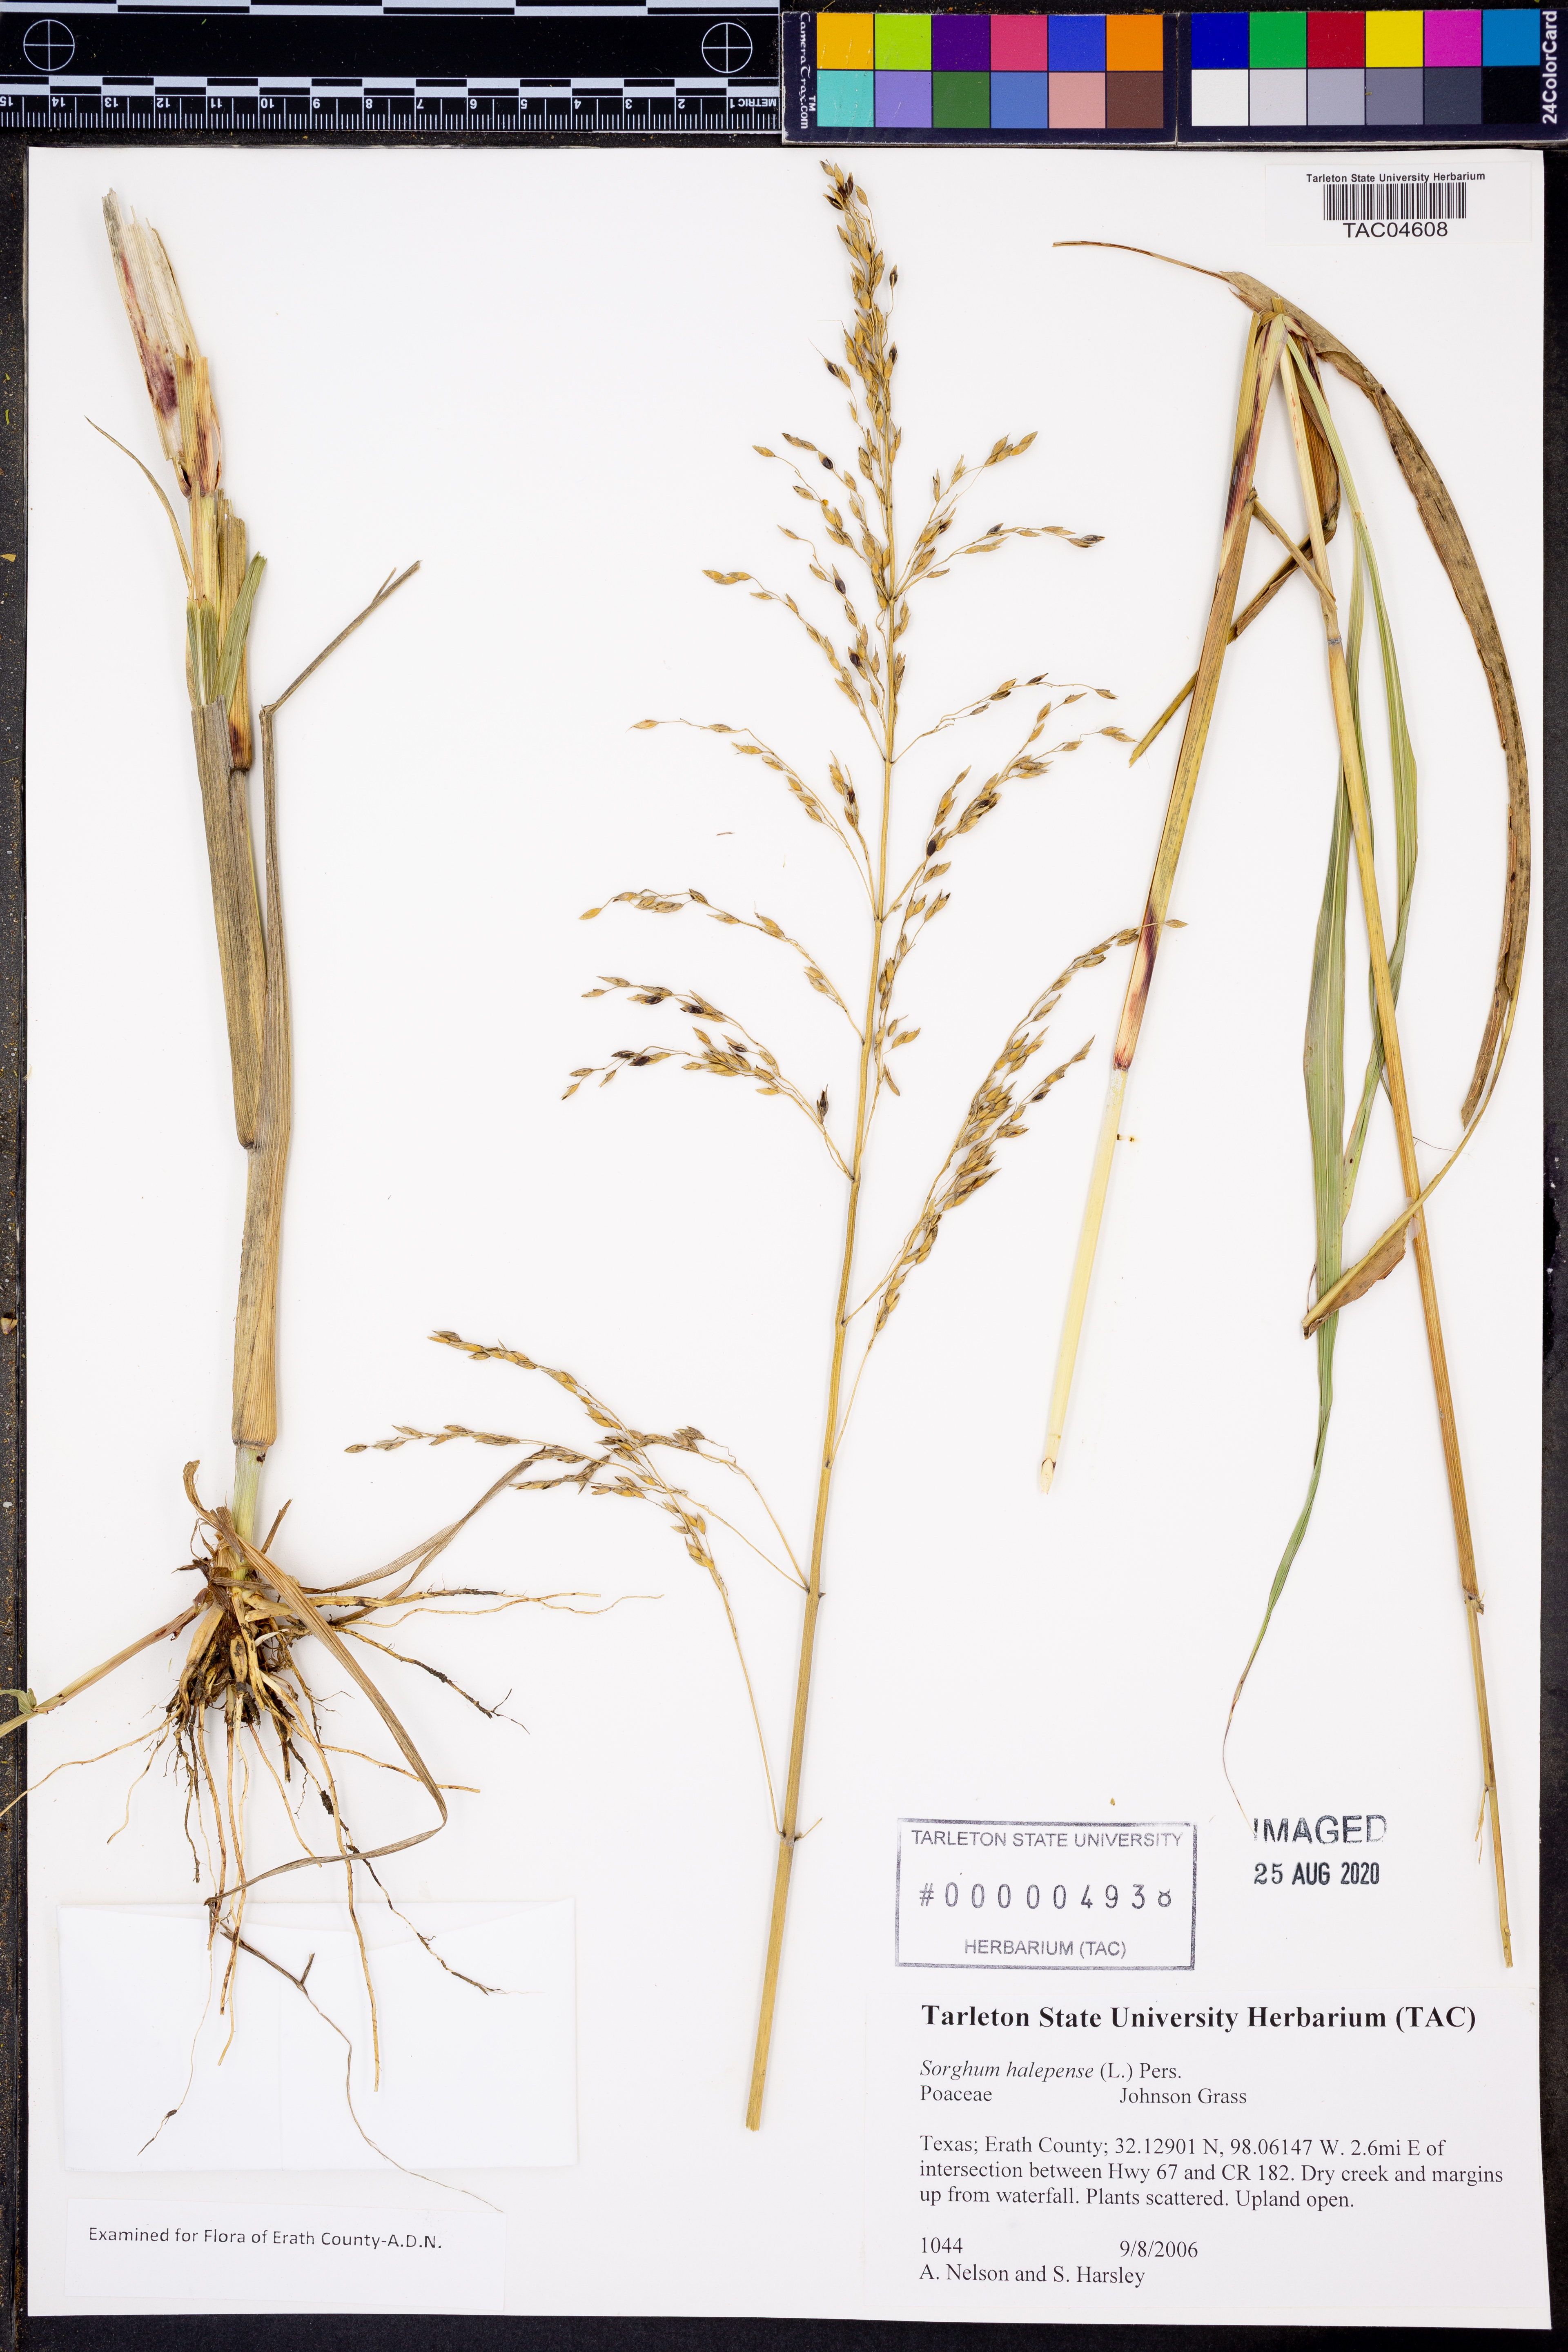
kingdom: Plantae
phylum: Tracheophyta
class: Liliopsida
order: Poales
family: Poaceae
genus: Sorghum
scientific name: Sorghum halepense
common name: Johnson-grass
